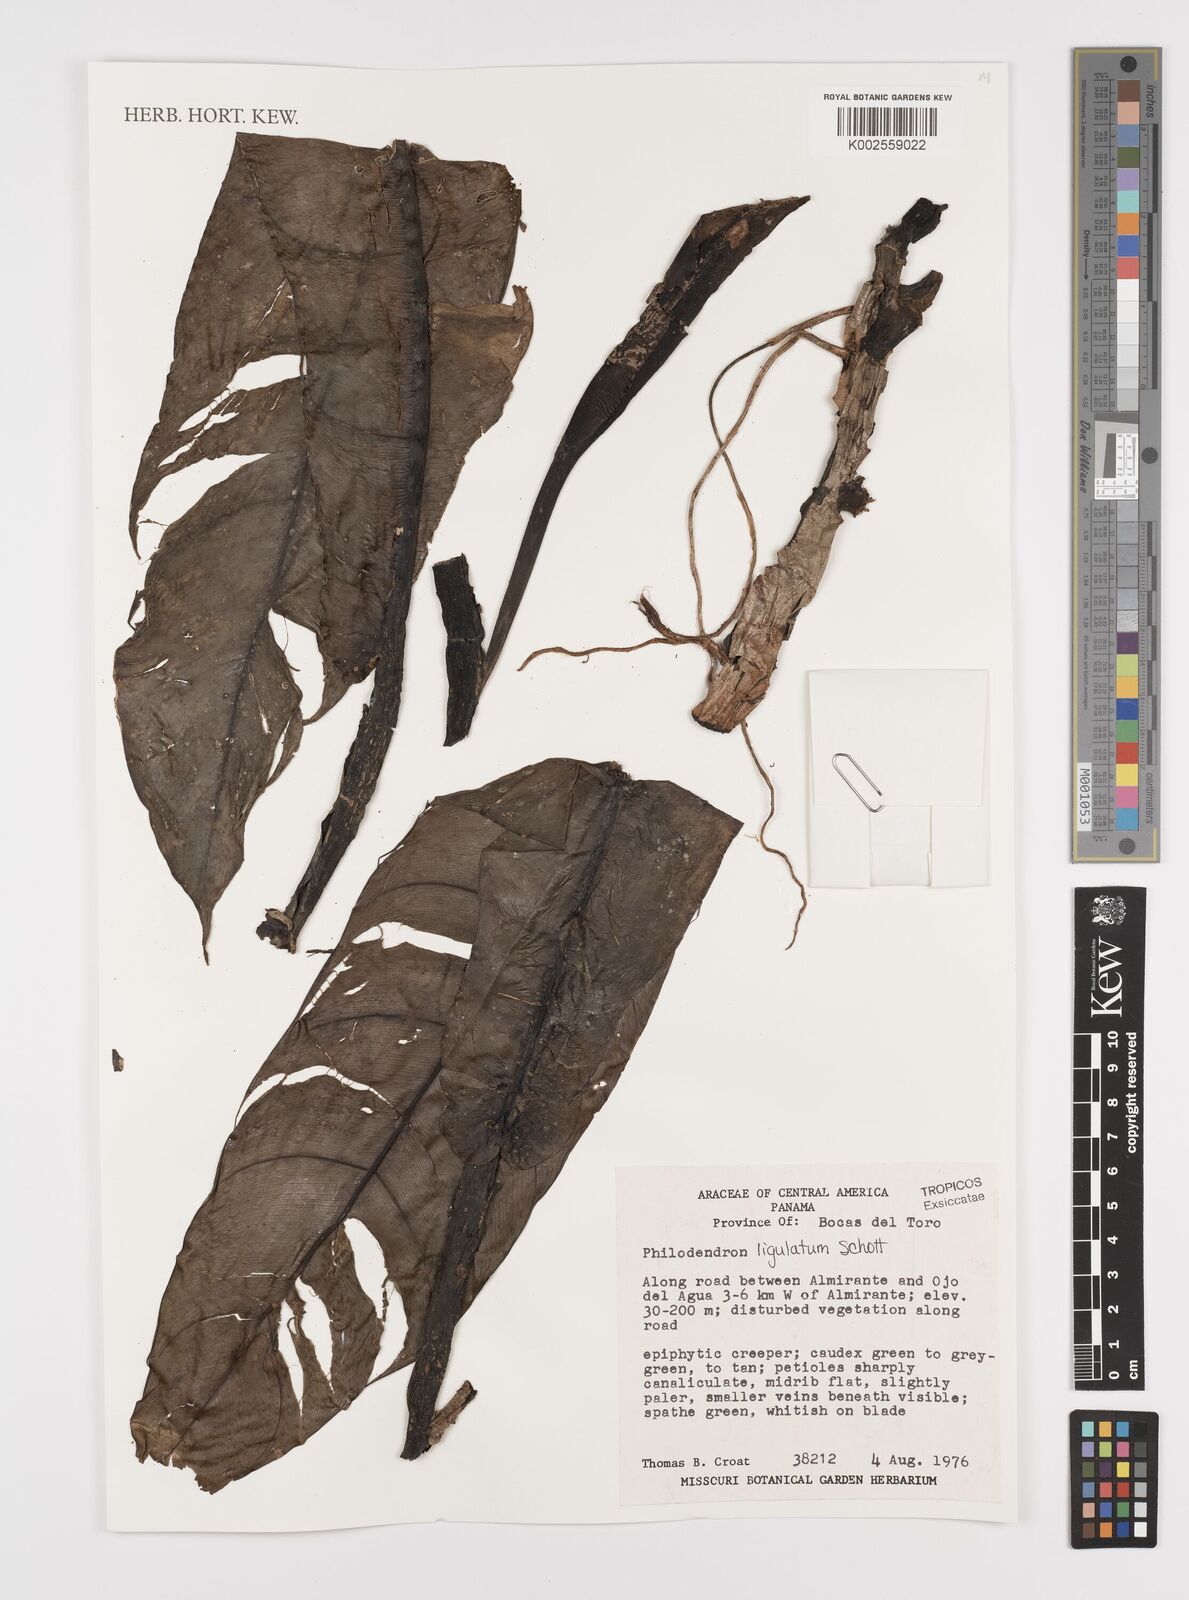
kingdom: Plantae
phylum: Tracheophyta
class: Liliopsida
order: Alismatales
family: Araceae
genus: Philodendron
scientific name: Philodendron ligulatum
